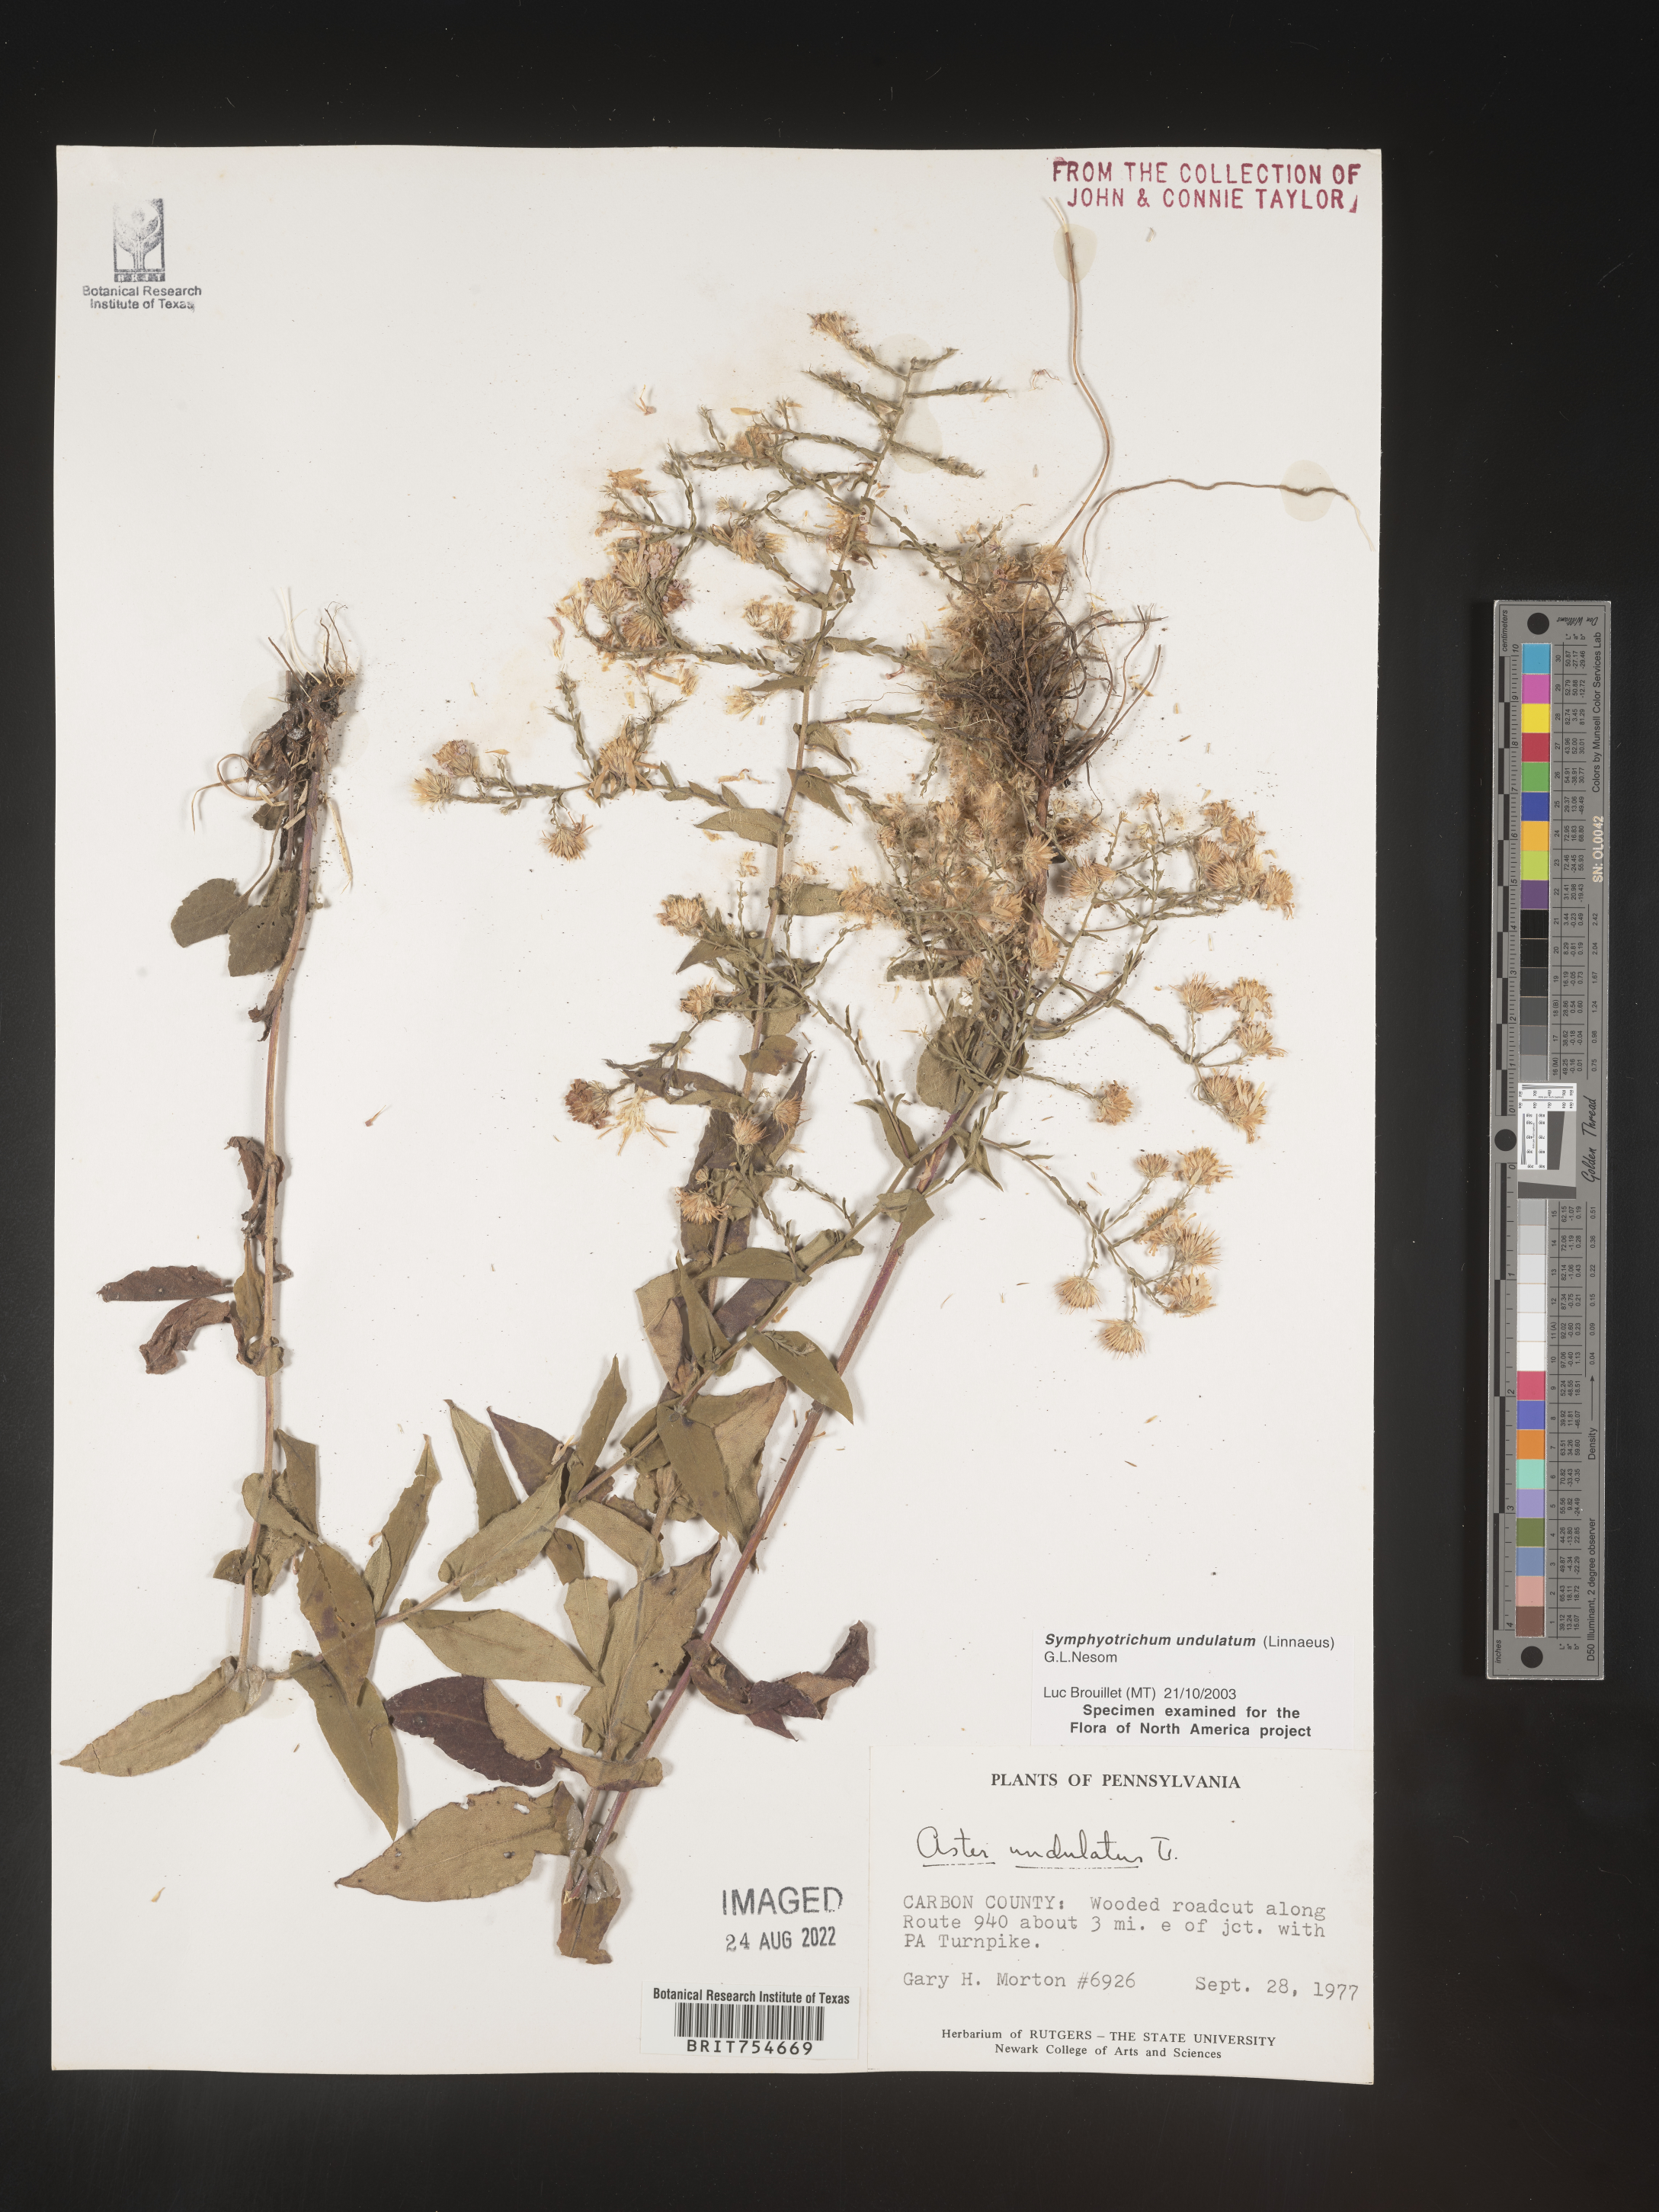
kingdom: Plantae
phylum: Tracheophyta
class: Magnoliopsida
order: Asterales
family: Asteraceae
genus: Symphyotrichum
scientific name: Symphyotrichum undulatum
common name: Clasping heart-leaf aster
